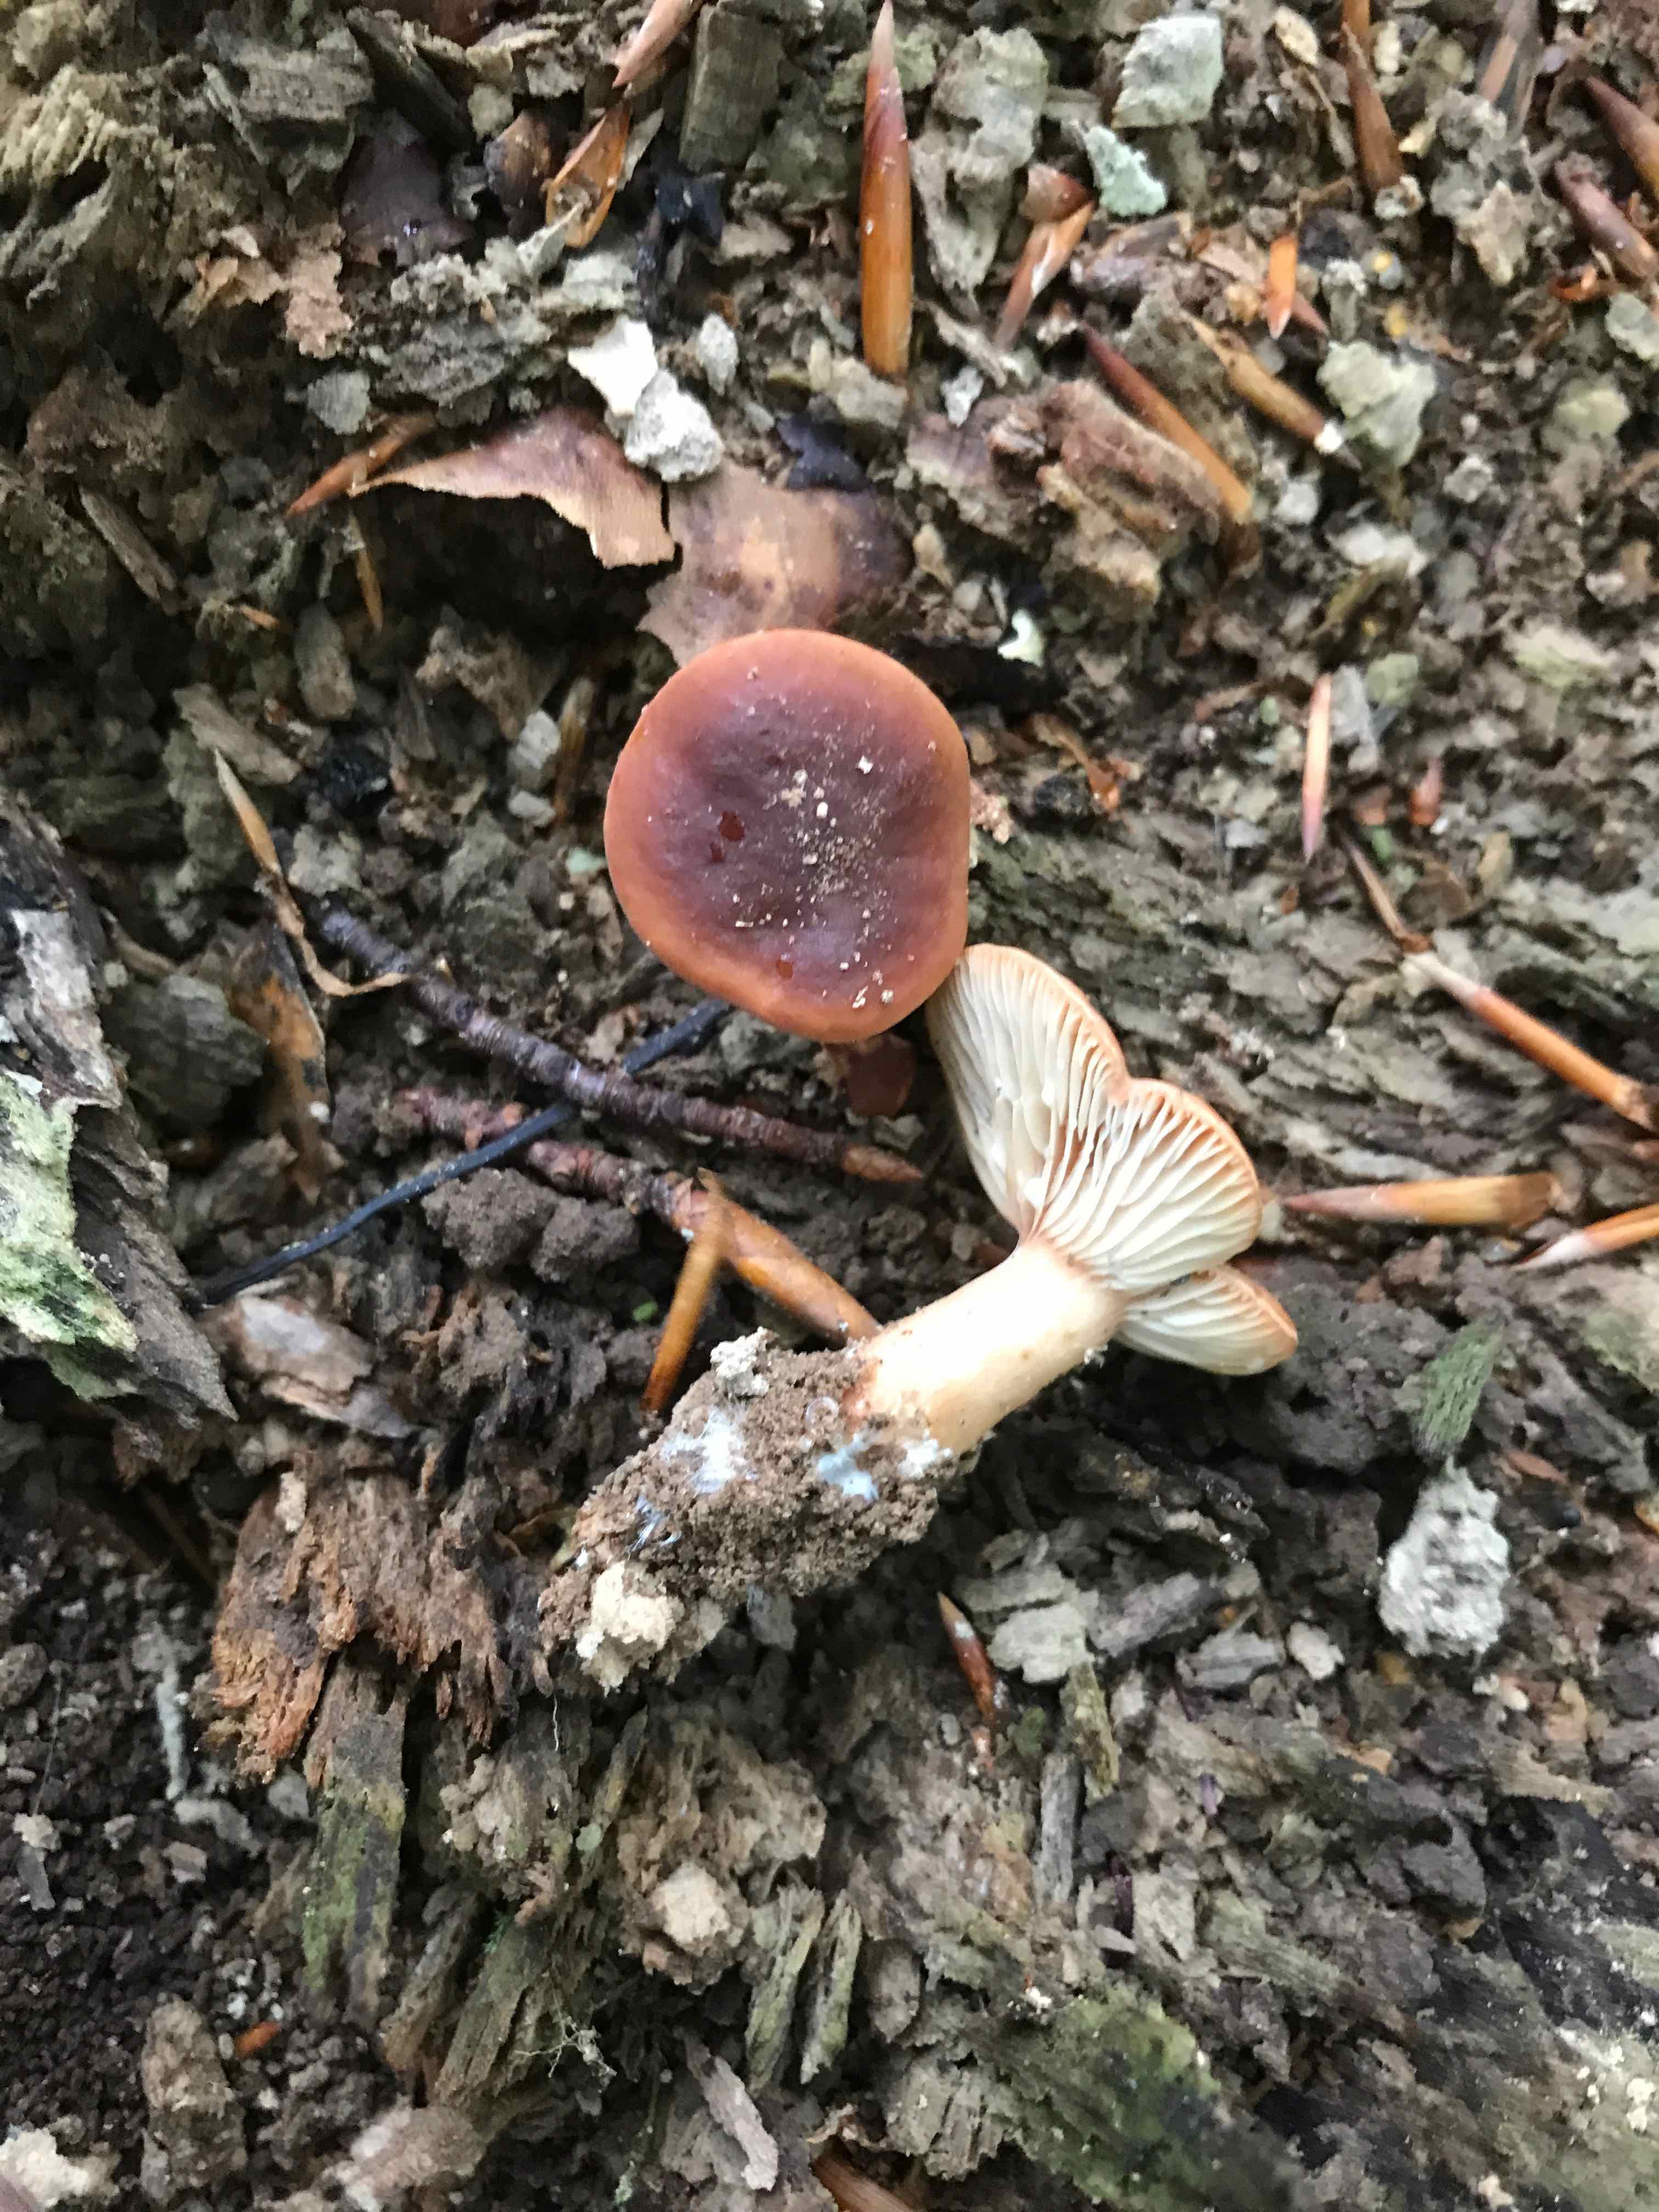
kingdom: Fungi
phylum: Basidiomycota
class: Agaricomycetes
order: Russulales
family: Russulaceae
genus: Lactarius
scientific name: Lactarius subdulcis
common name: sødlig mælkehat
